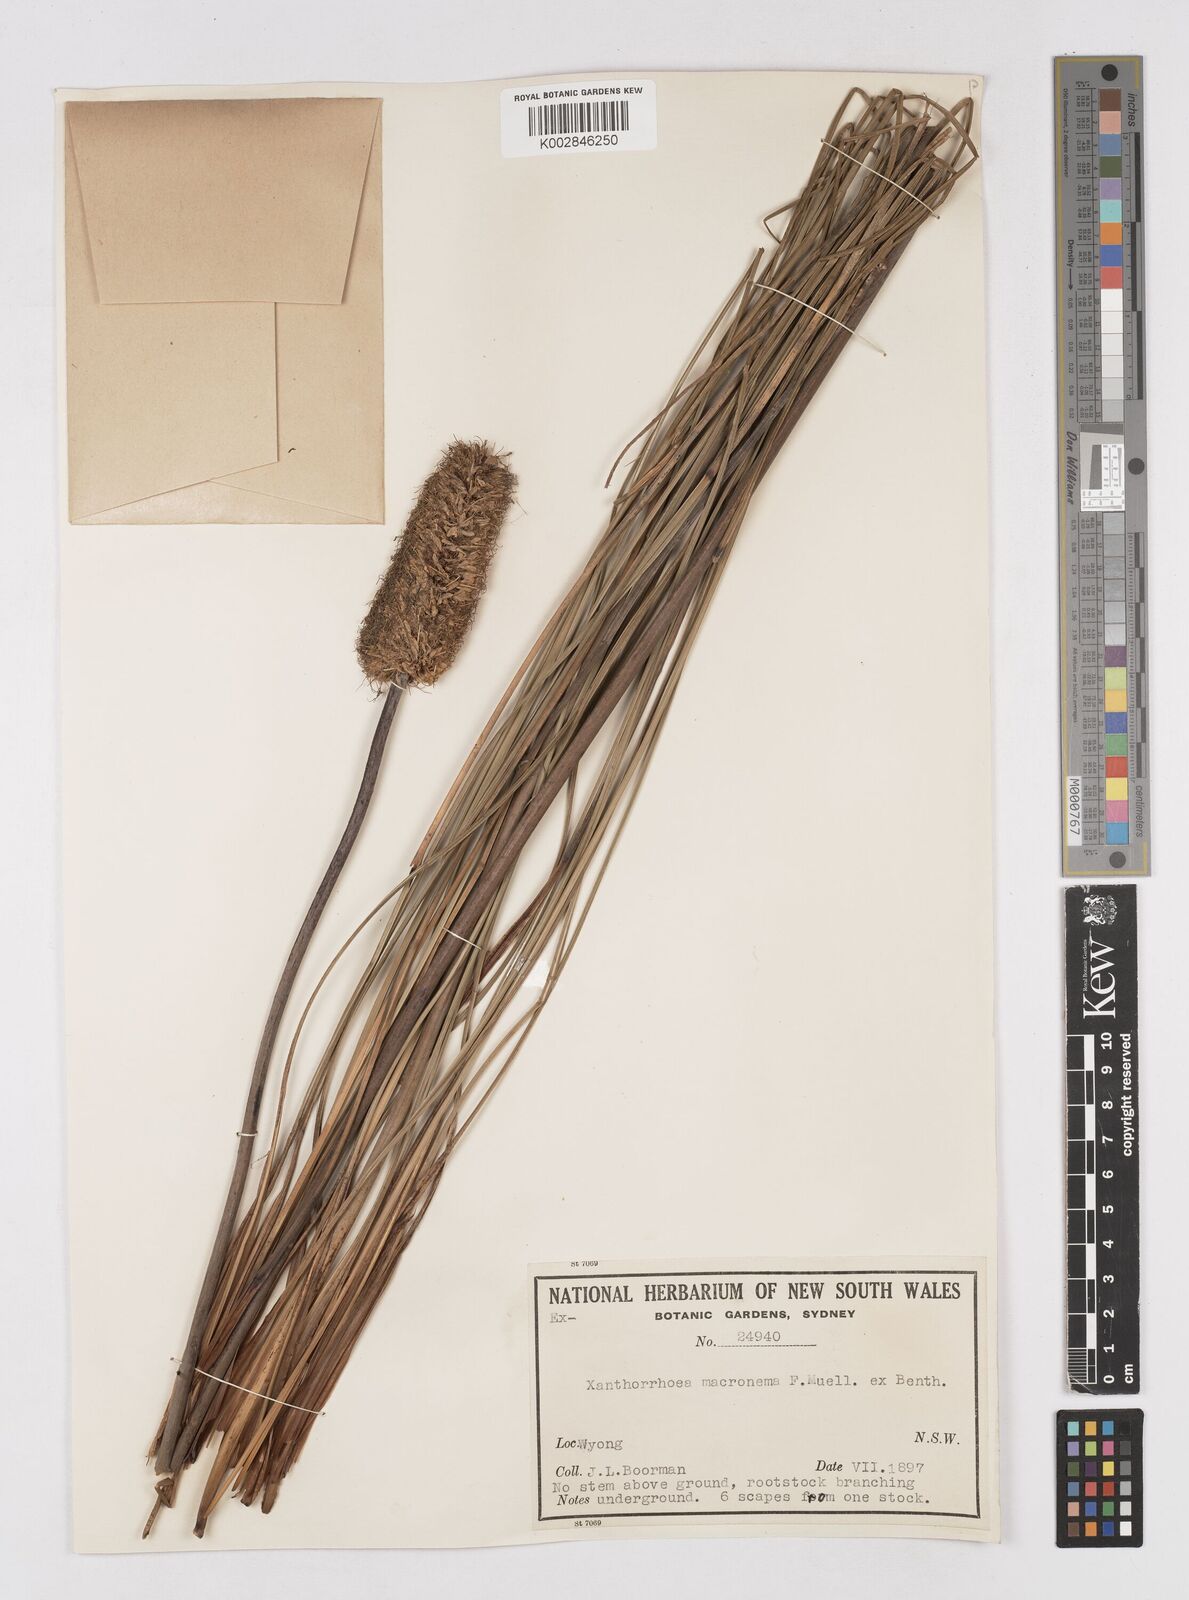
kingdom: Plantae
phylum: Tracheophyta
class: Liliopsida
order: Asparagales
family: Asphodelaceae
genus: Xanthorrhoea
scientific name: Xanthorrhoea macronema
